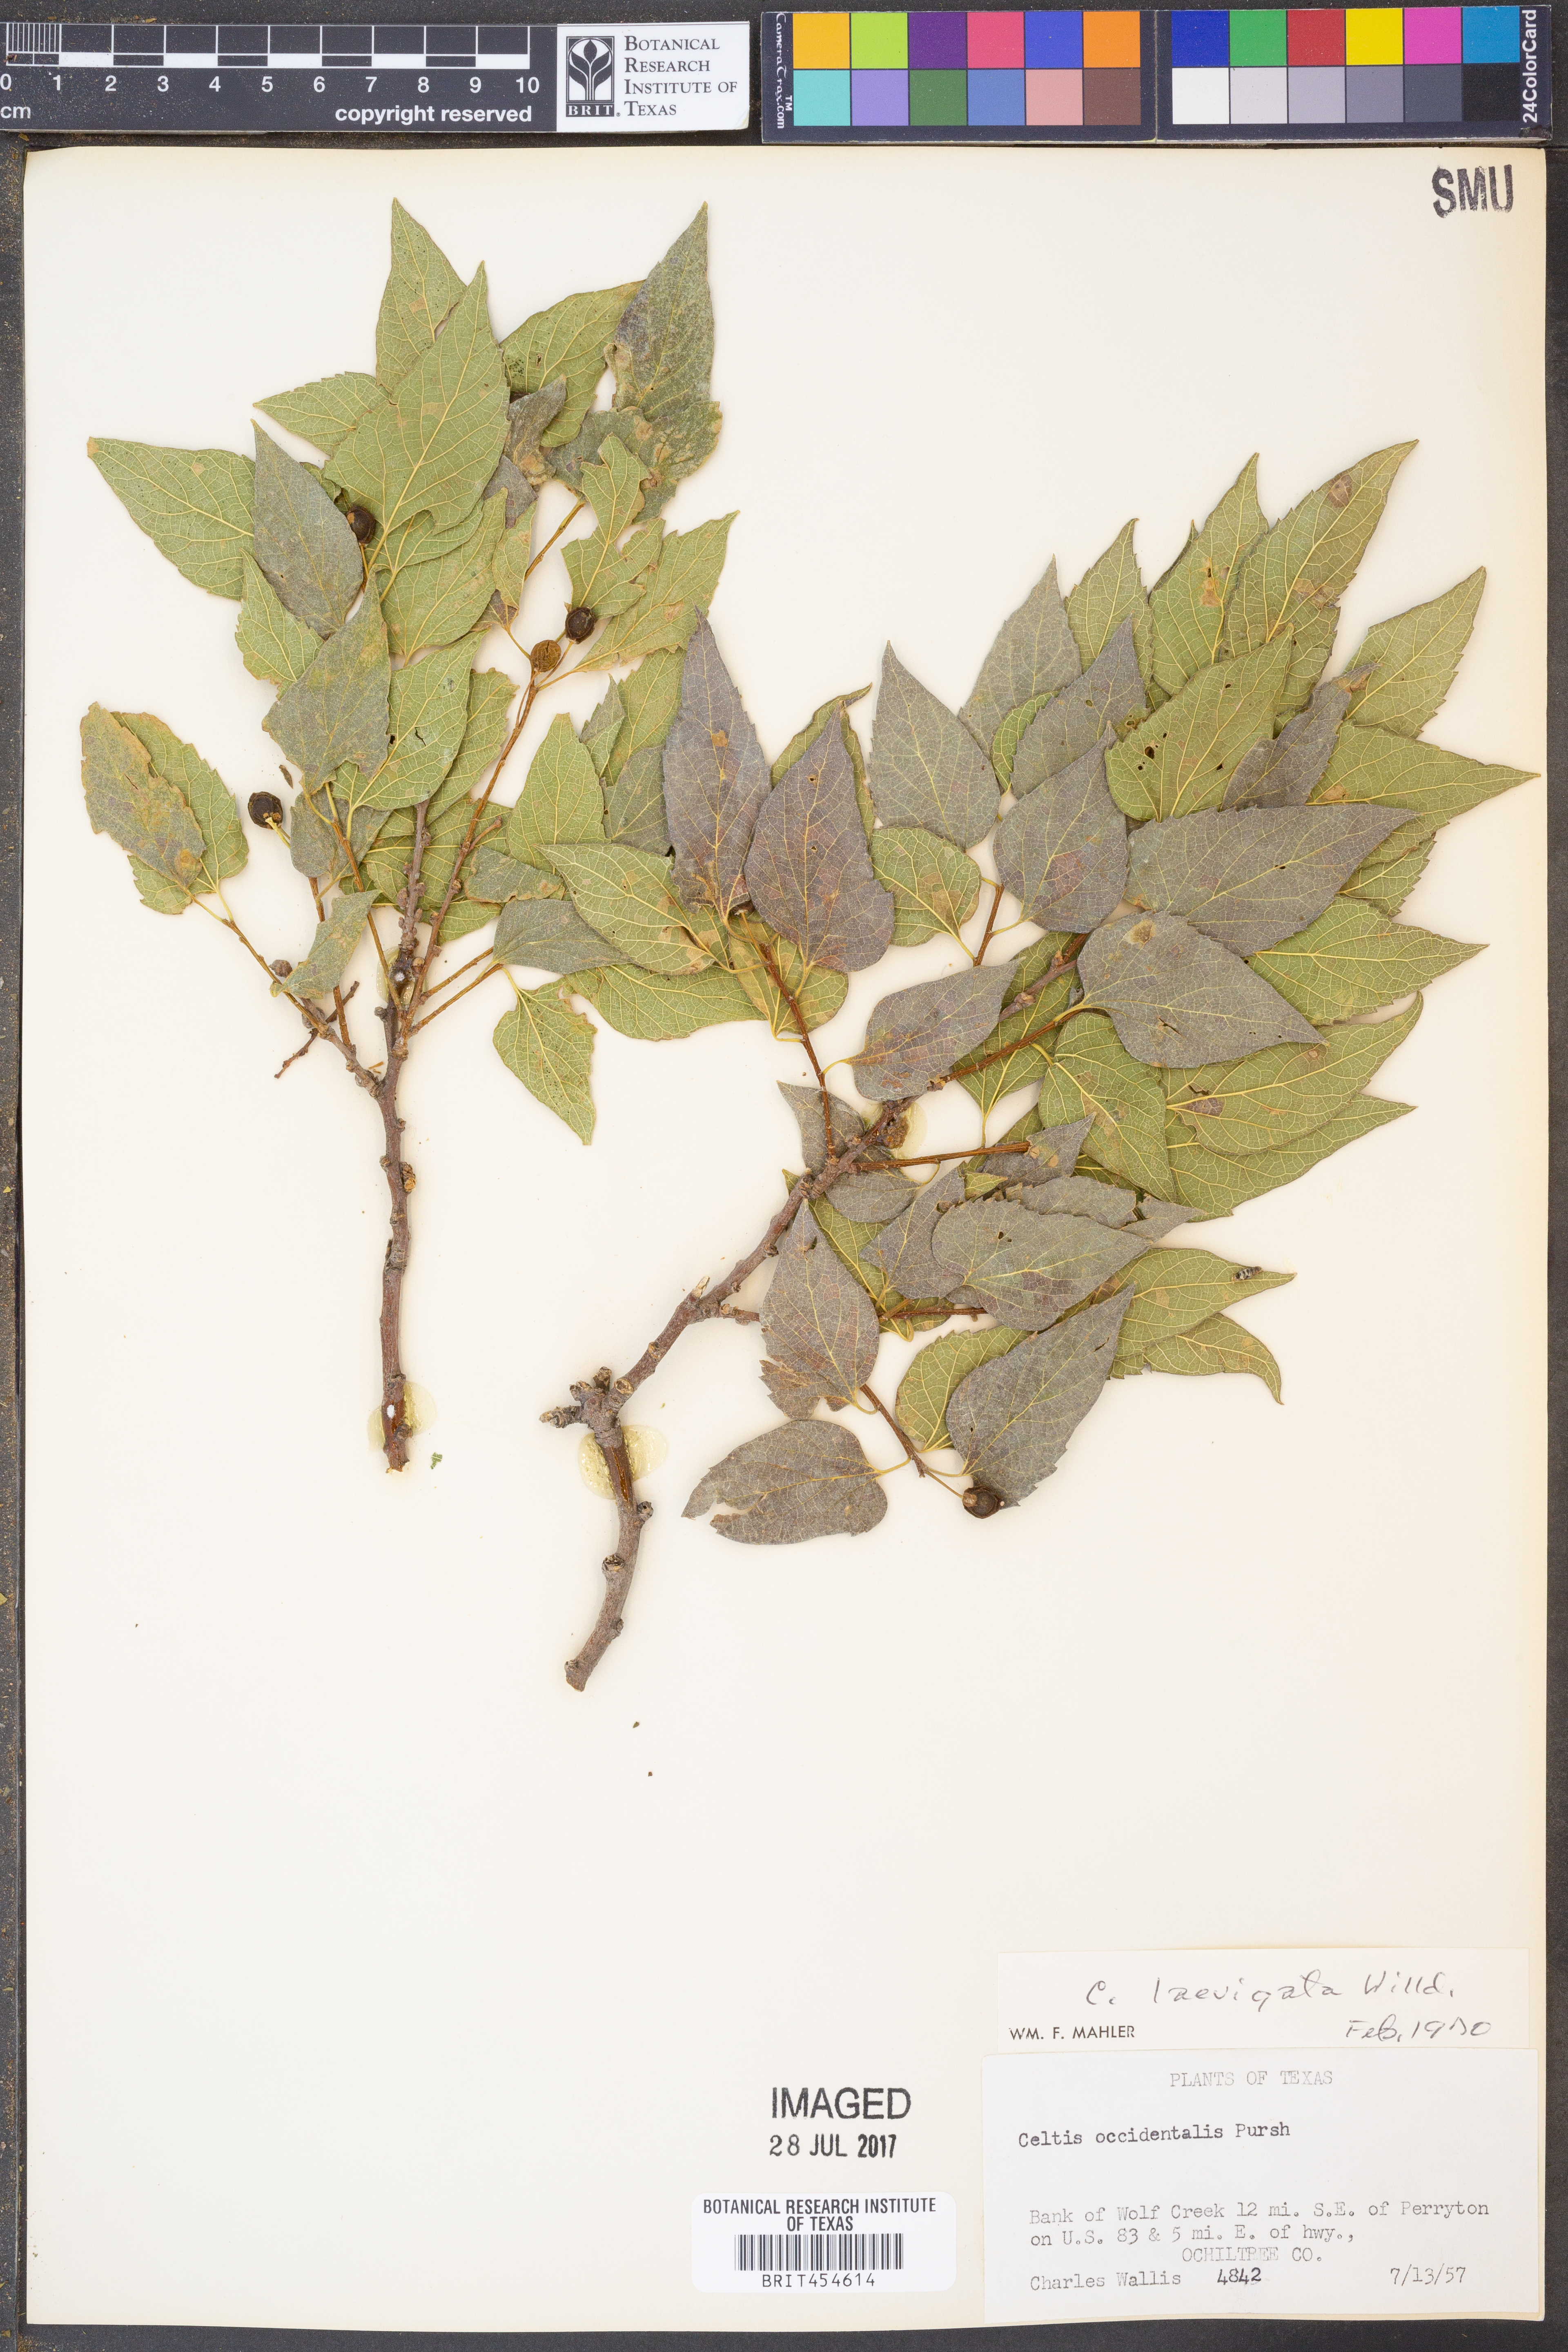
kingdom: Plantae
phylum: Tracheophyta
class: Magnoliopsida
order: Rosales
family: Cannabaceae
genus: Celtis
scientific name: Celtis laevigata
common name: Sugarberry
